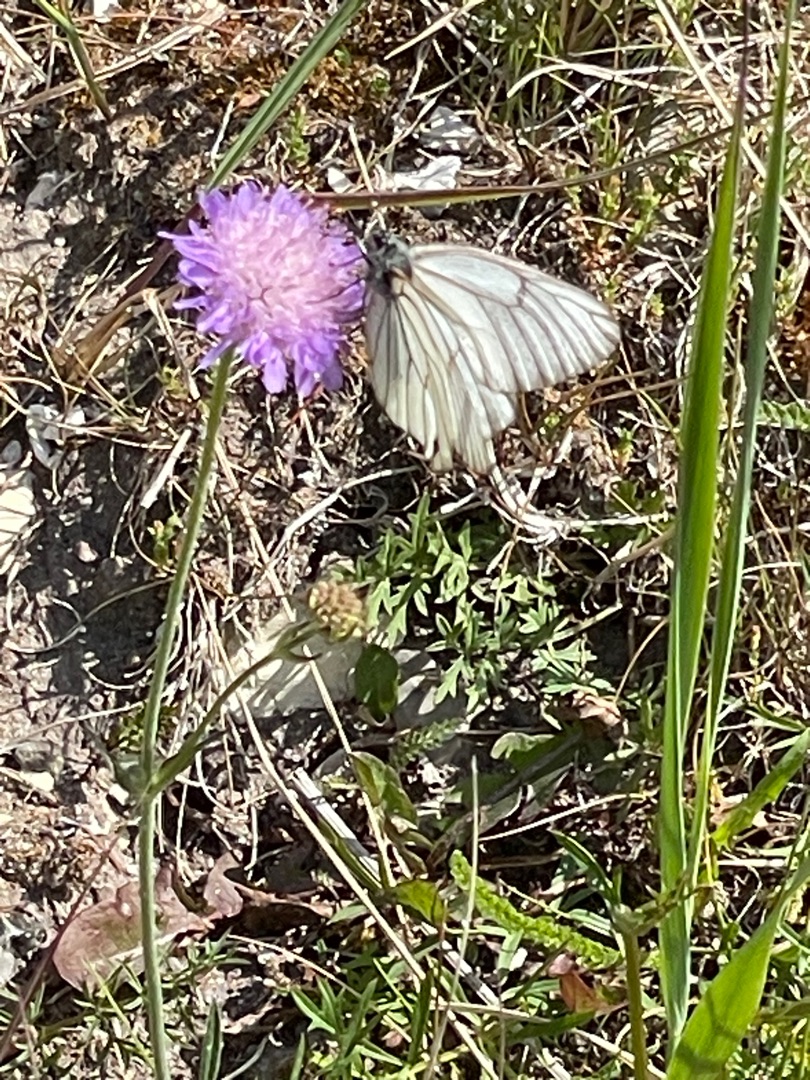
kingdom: Animalia
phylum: Arthropoda
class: Insecta
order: Lepidoptera
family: Pieridae
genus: Aporia
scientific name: Aporia crataegi
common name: Sortåret hvidvinge
